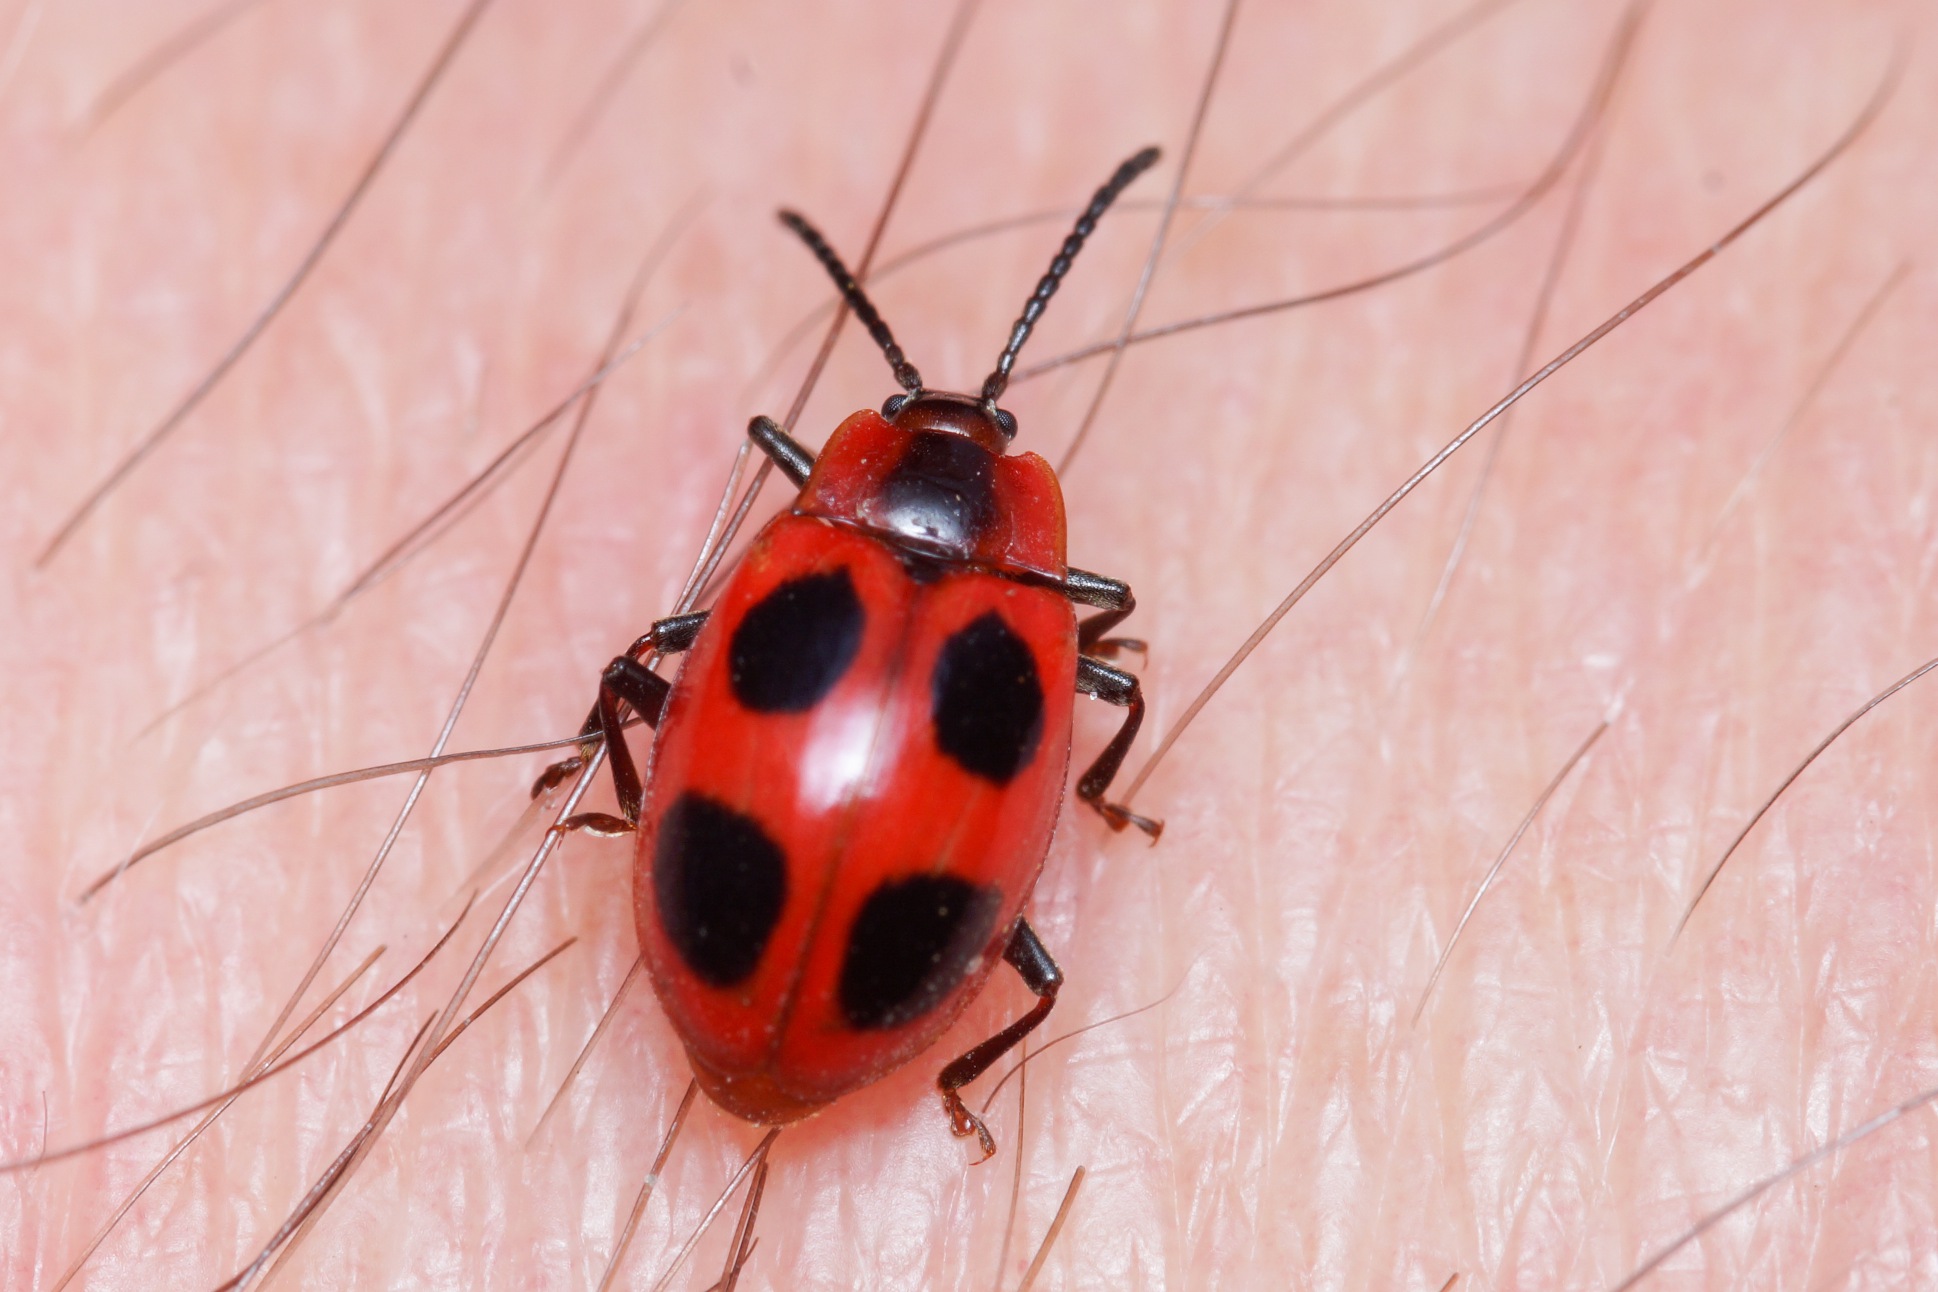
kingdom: Animalia
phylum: Arthropoda
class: Insecta
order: Coleoptera
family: Endomychidae
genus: Endomychus
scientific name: Endomychus coccineus
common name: Skarlagensvampehøne
